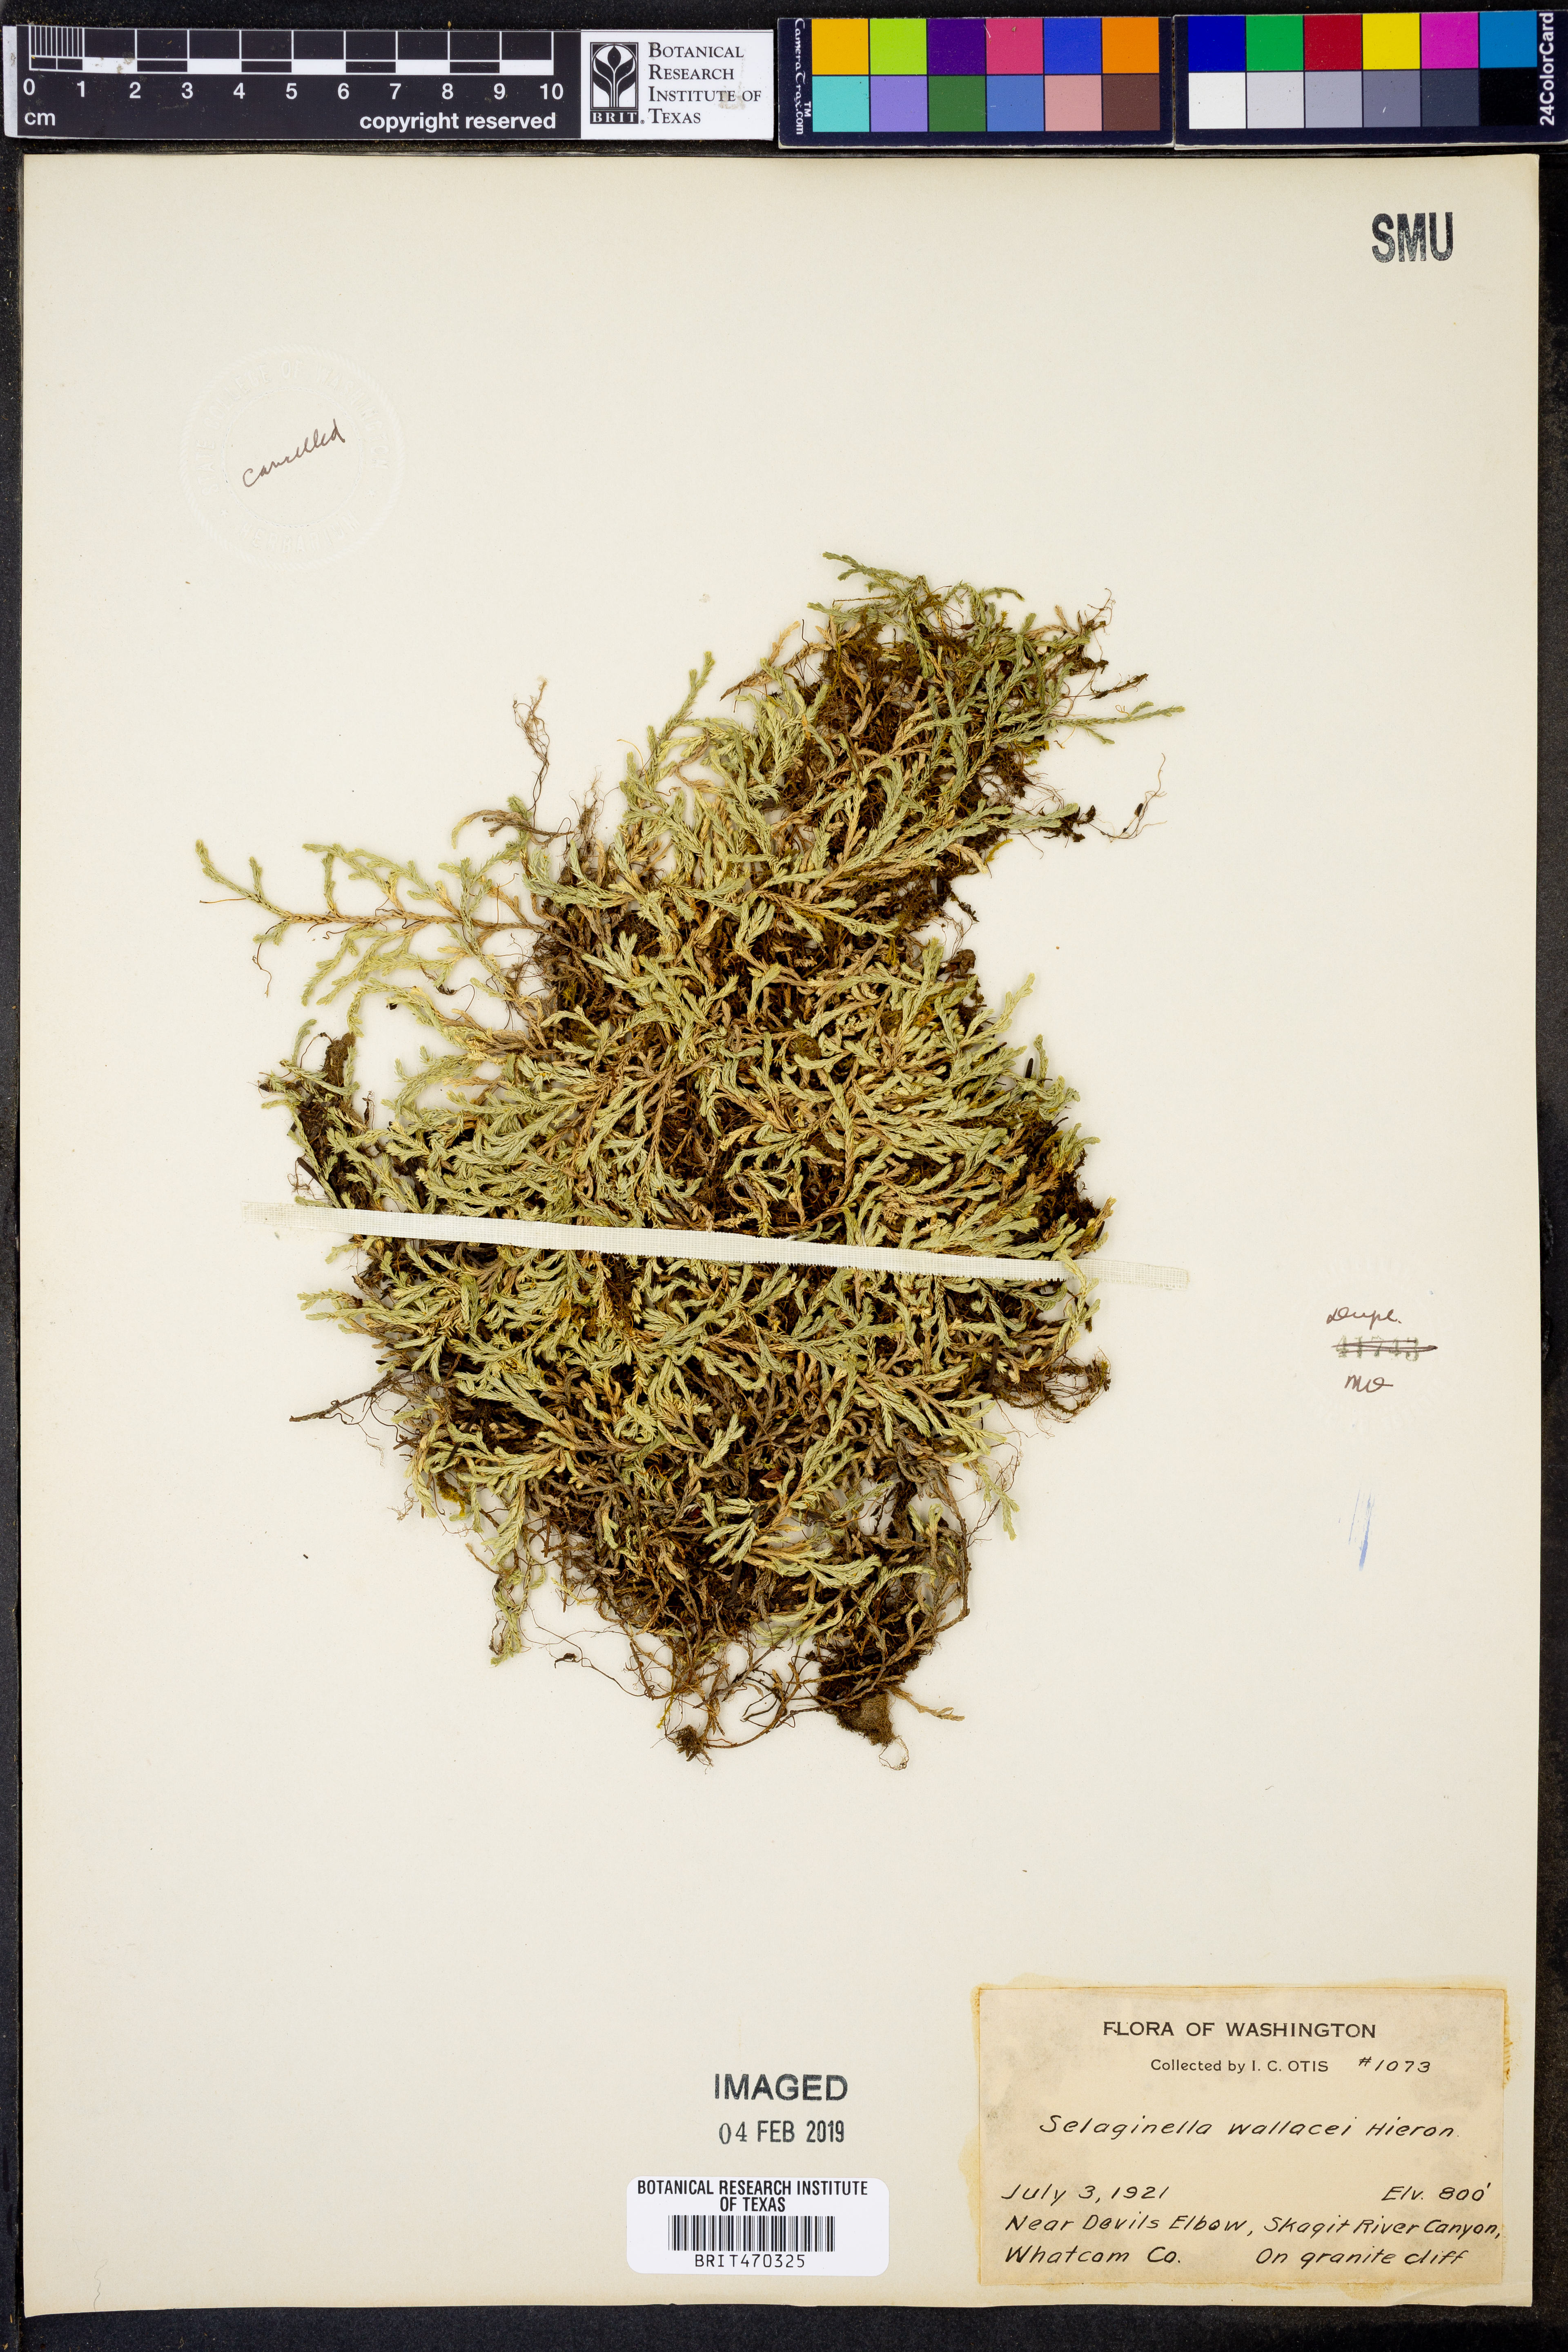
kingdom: Plantae
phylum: Tracheophyta
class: Lycopodiopsida
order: Selaginellales
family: Selaginellaceae
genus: Selaginella
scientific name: Selaginella wallacei
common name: Wallace's selaginella
